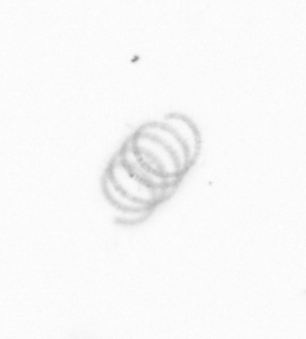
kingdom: Chromista
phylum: Ochrophyta
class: Bacillariophyceae
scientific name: Bacillariophyceae
